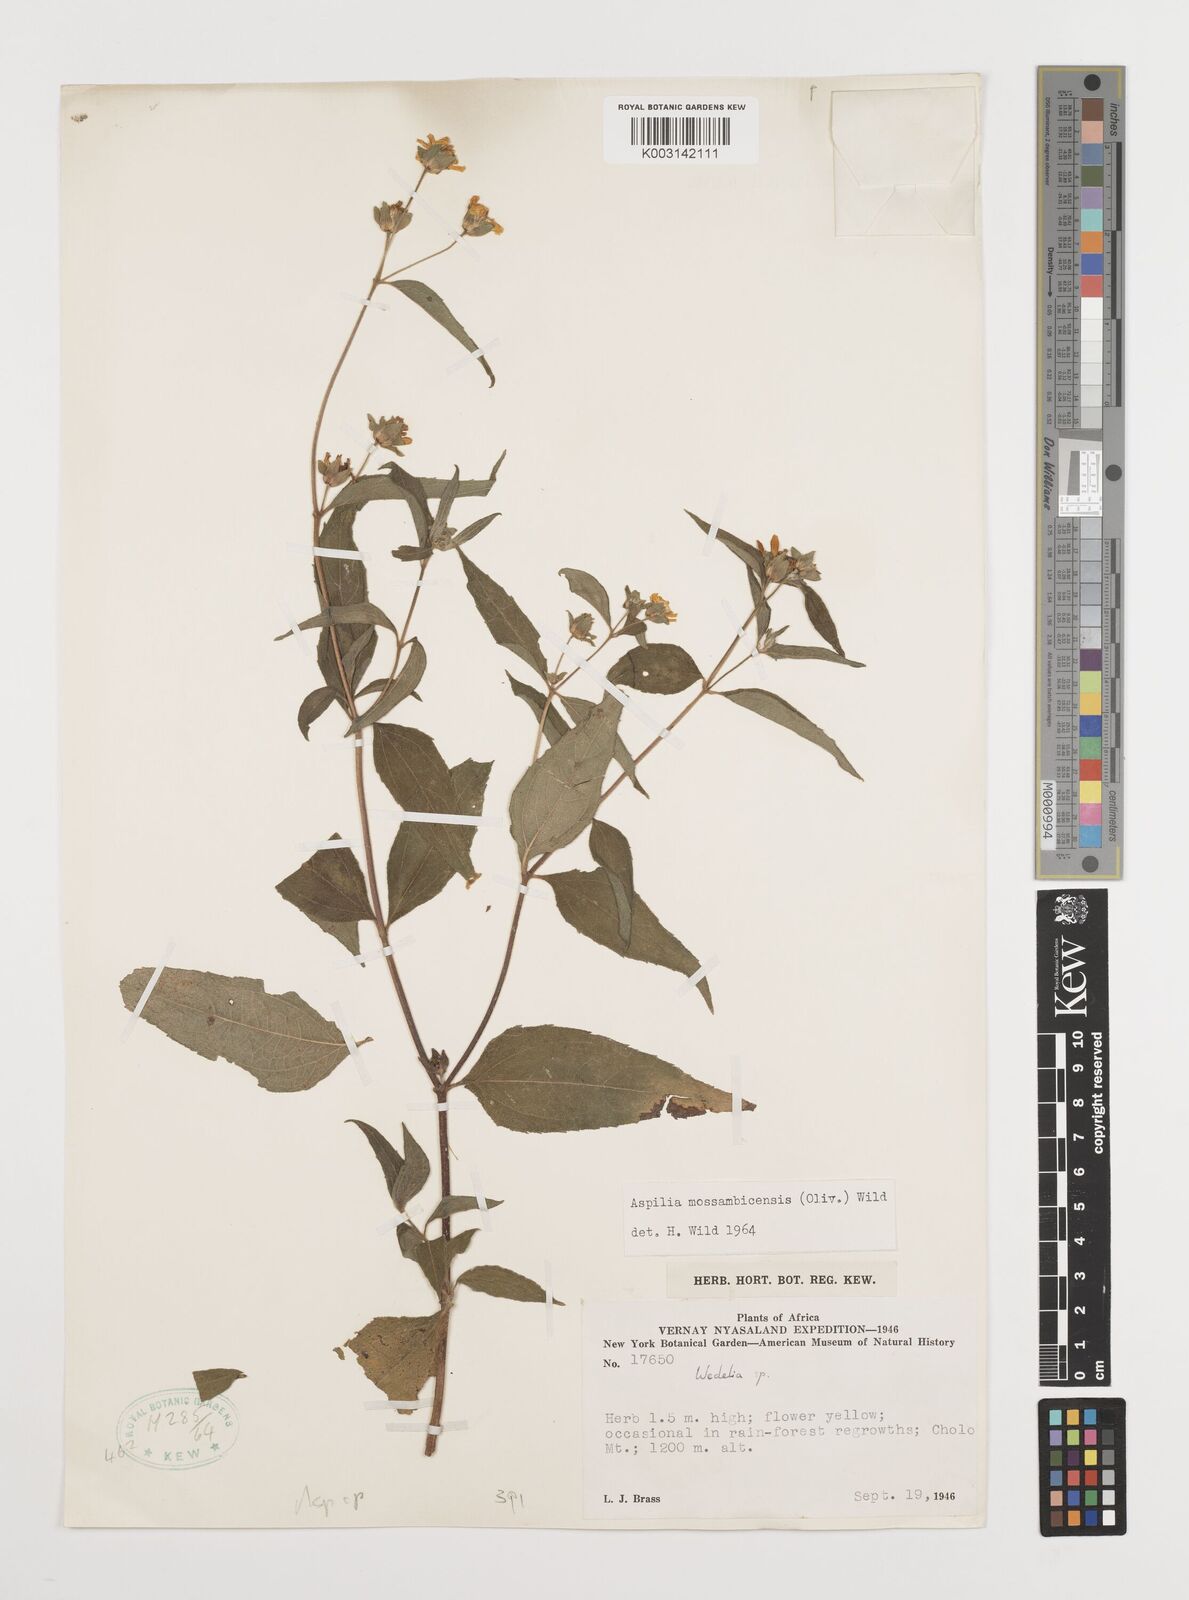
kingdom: Plantae
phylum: Tracheophyta
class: Magnoliopsida
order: Asterales
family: Asteraceae
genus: Aspilia
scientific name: Aspilia mossambicensis
